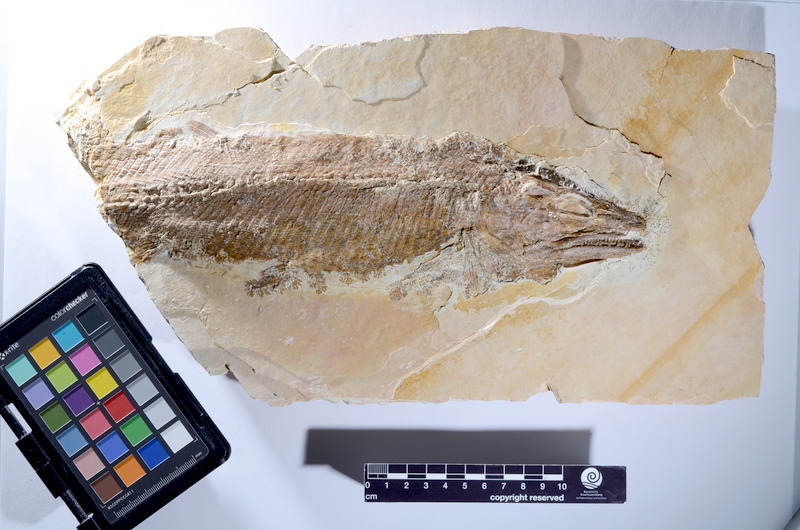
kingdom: Animalia
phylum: Chordata
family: Ophiopsiellidae
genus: Furo
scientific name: Furo microlepidotes
